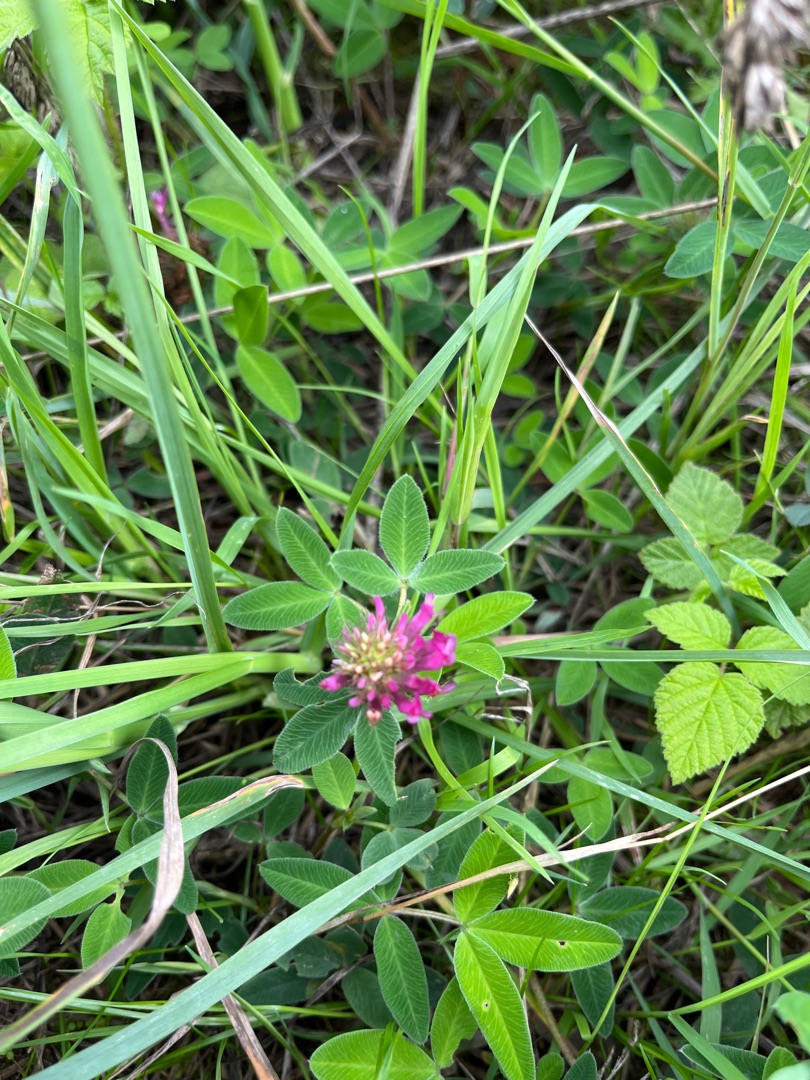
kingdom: Plantae
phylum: Tracheophyta
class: Magnoliopsida
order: Fabales
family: Fabaceae
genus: Trifolium
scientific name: Trifolium medium
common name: Bugtet kløver
